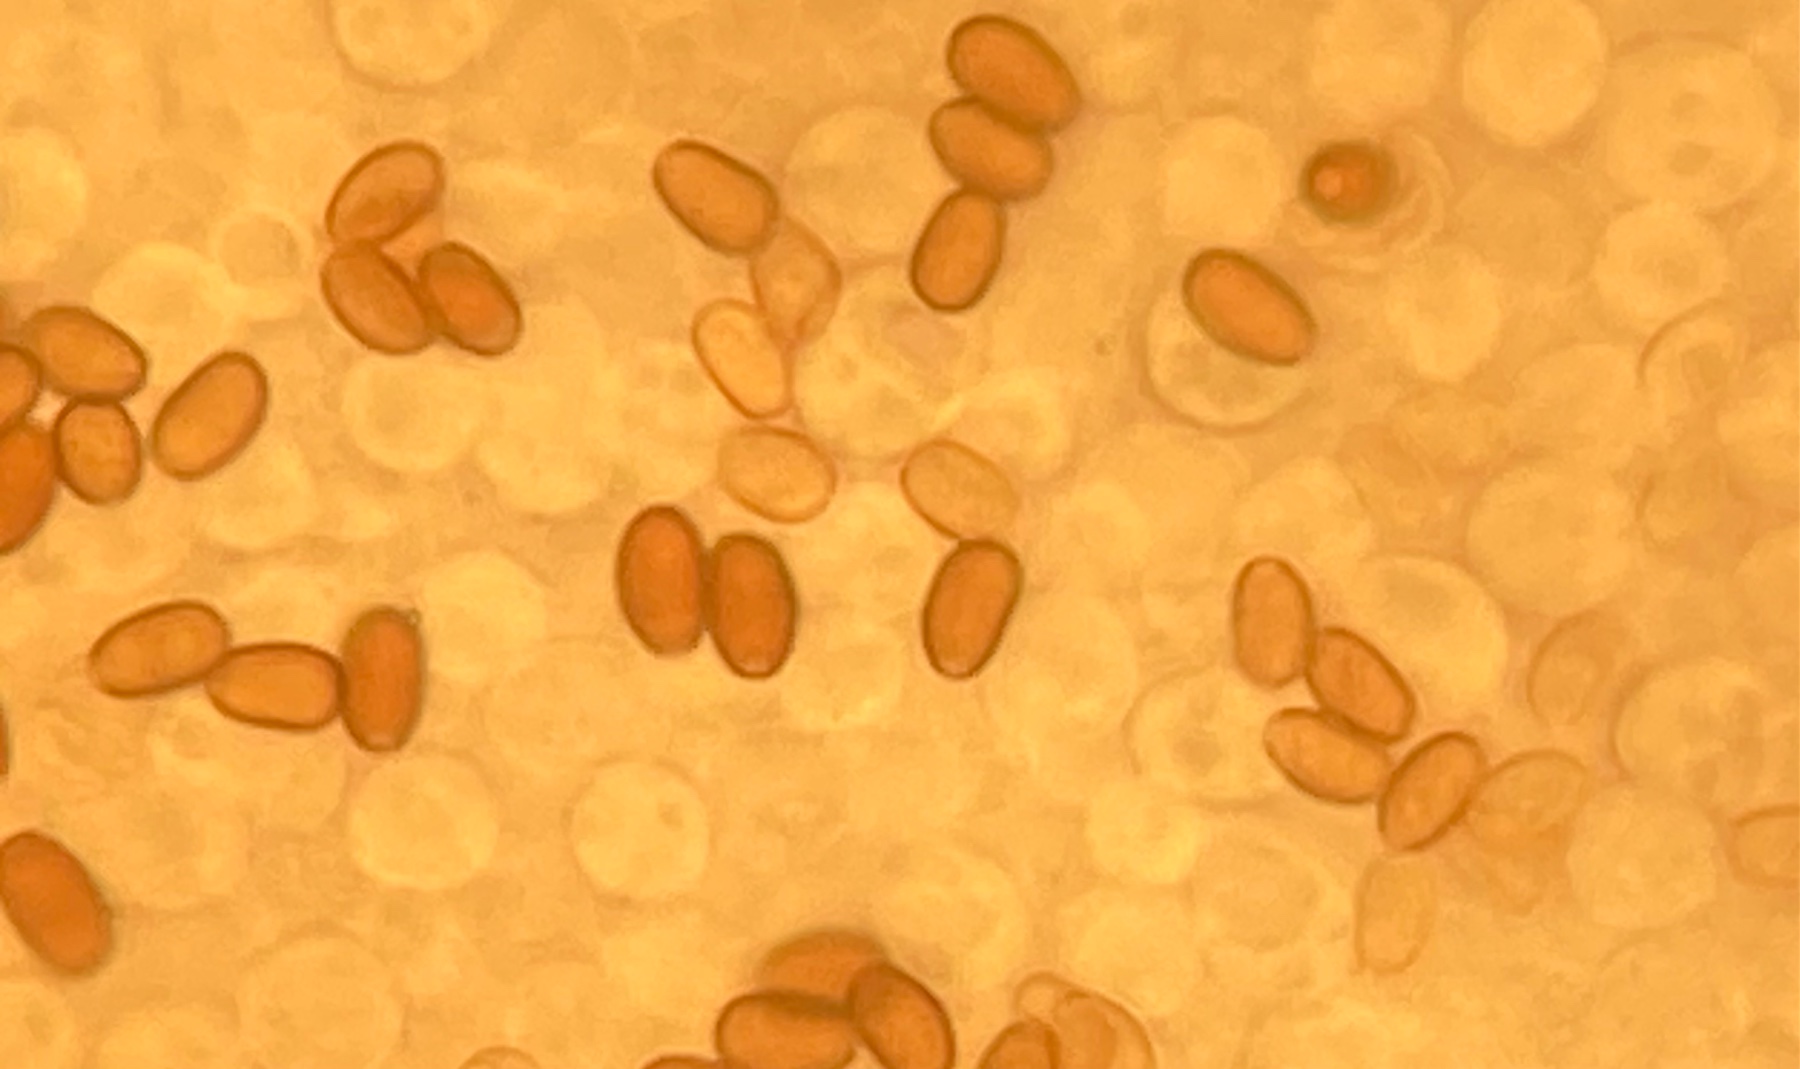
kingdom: Fungi
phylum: Basidiomycota
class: Agaricomycetes
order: Agaricales
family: Psathyrellaceae
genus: Candolleomyces
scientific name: Candolleomyces candolleanus
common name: Candolles mørkhat
